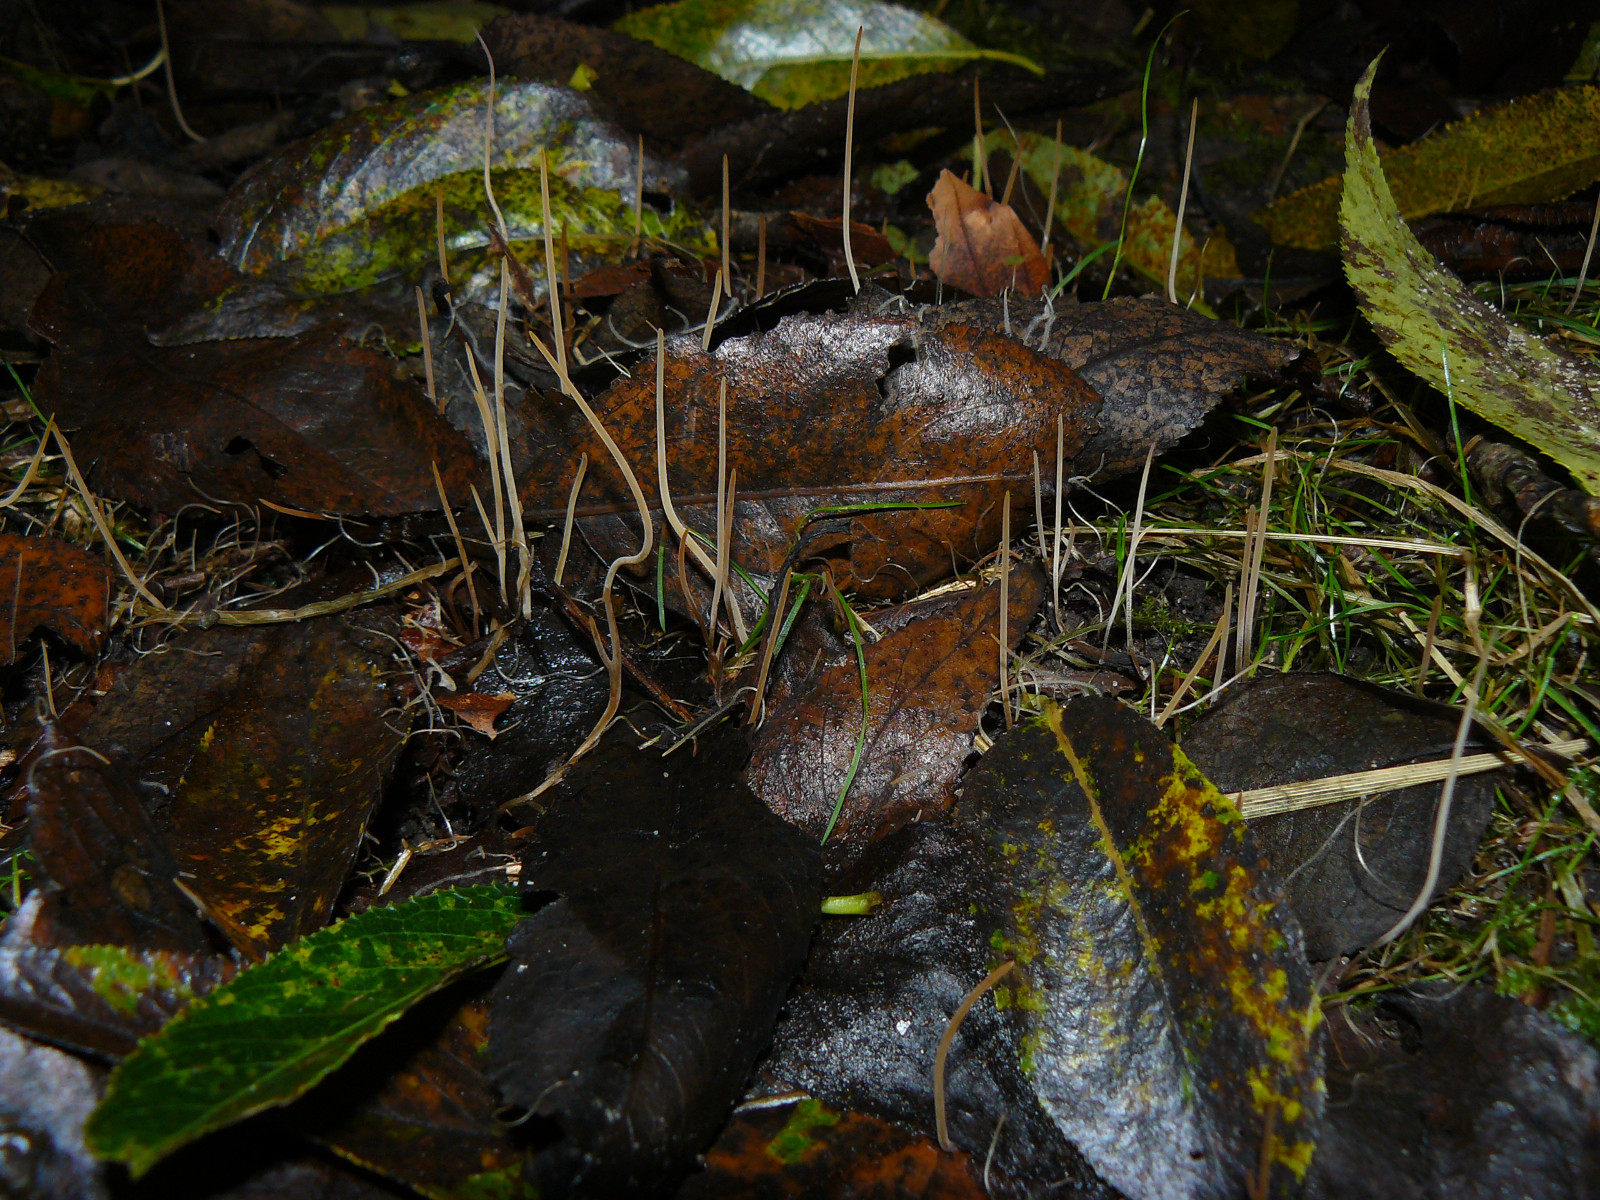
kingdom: Fungi
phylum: Basidiomycota
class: Agaricomycetes
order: Agaricales
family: Typhulaceae
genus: Typhula
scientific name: Typhula juncea
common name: trådagtig rørkølle
